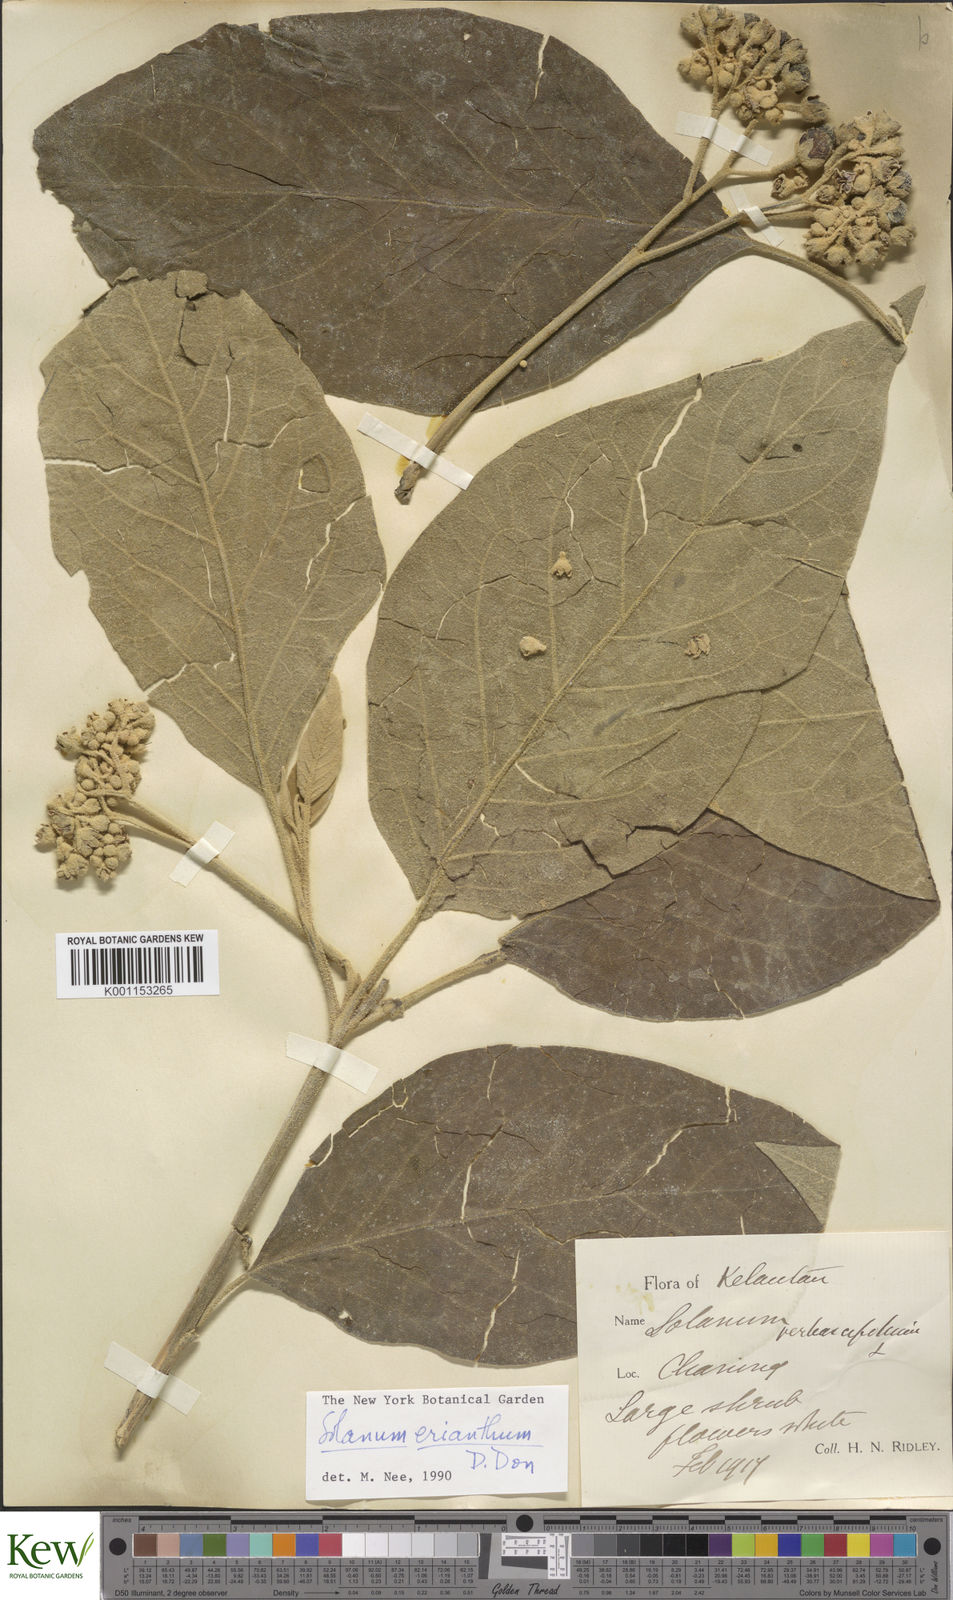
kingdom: Plantae
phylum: Tracheophyta
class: Magnoliopsida
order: Solanales
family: Solanaceae
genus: Solanum
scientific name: Solanum erianthum
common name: Tobacco-tree
